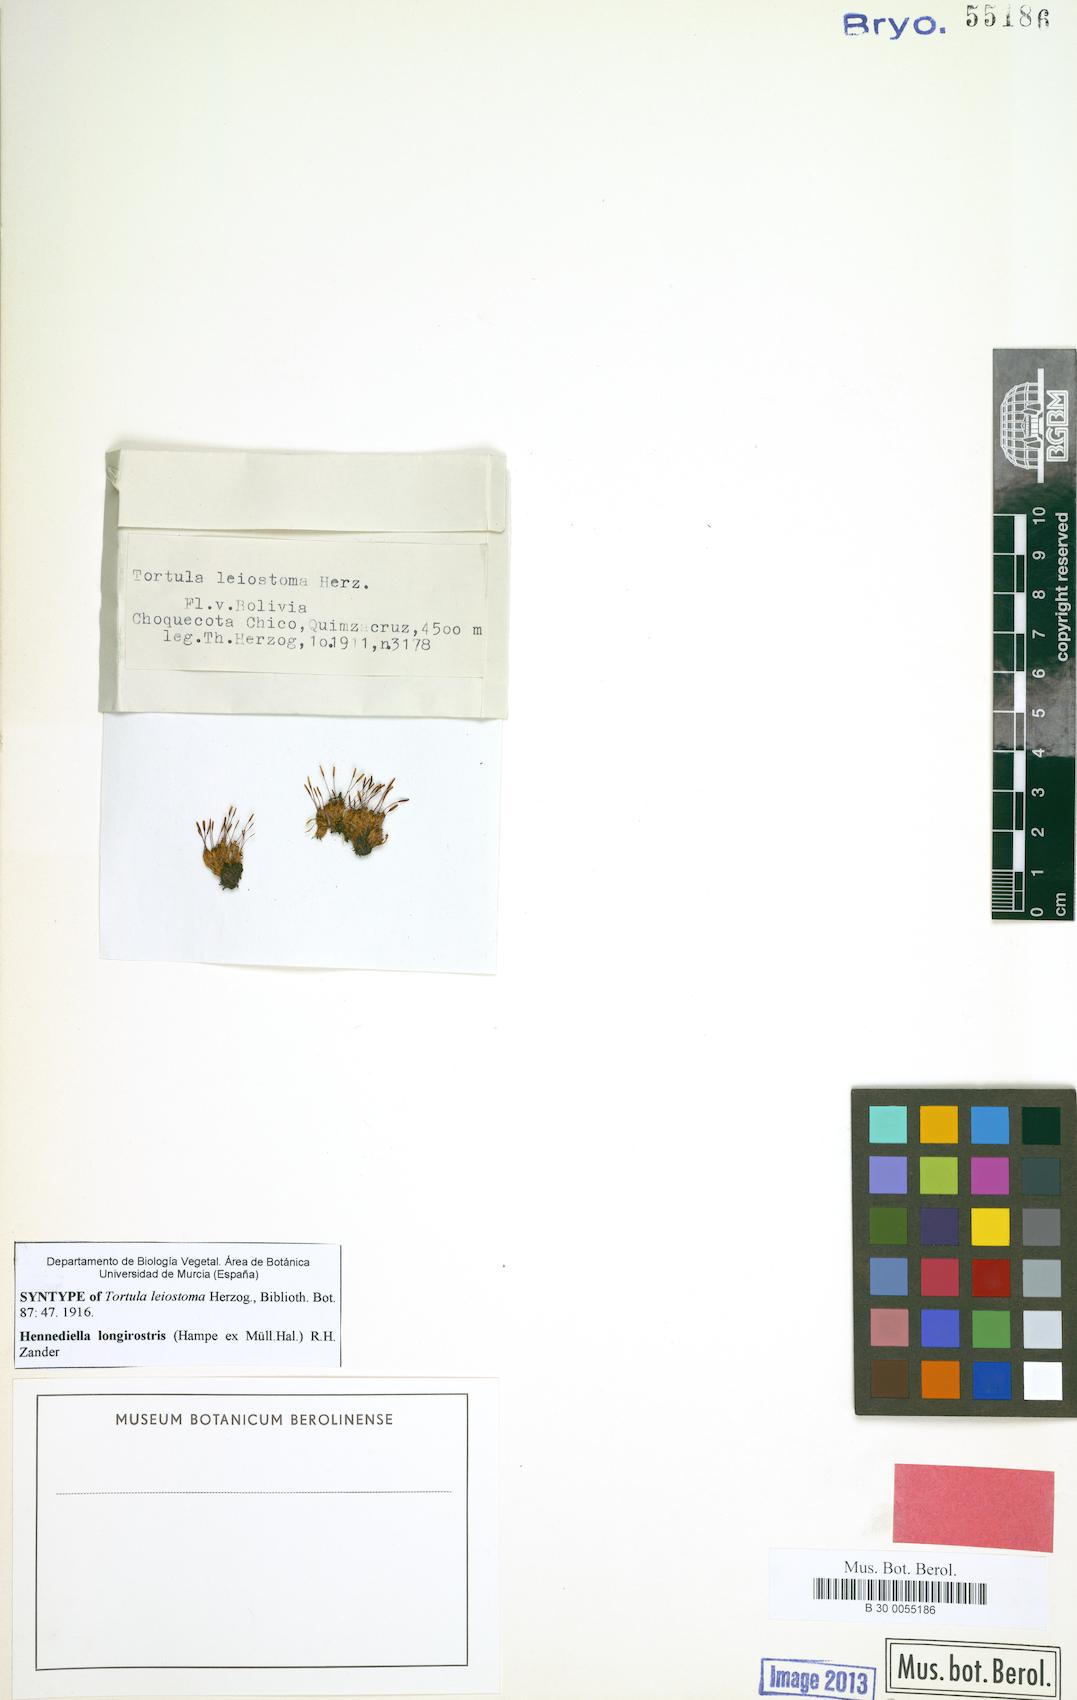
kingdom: Plantae
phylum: Bryophyta
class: Bryopsida
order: Pottiales
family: Pottiaceae
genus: Hennediella
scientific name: Hennediella longirostris
